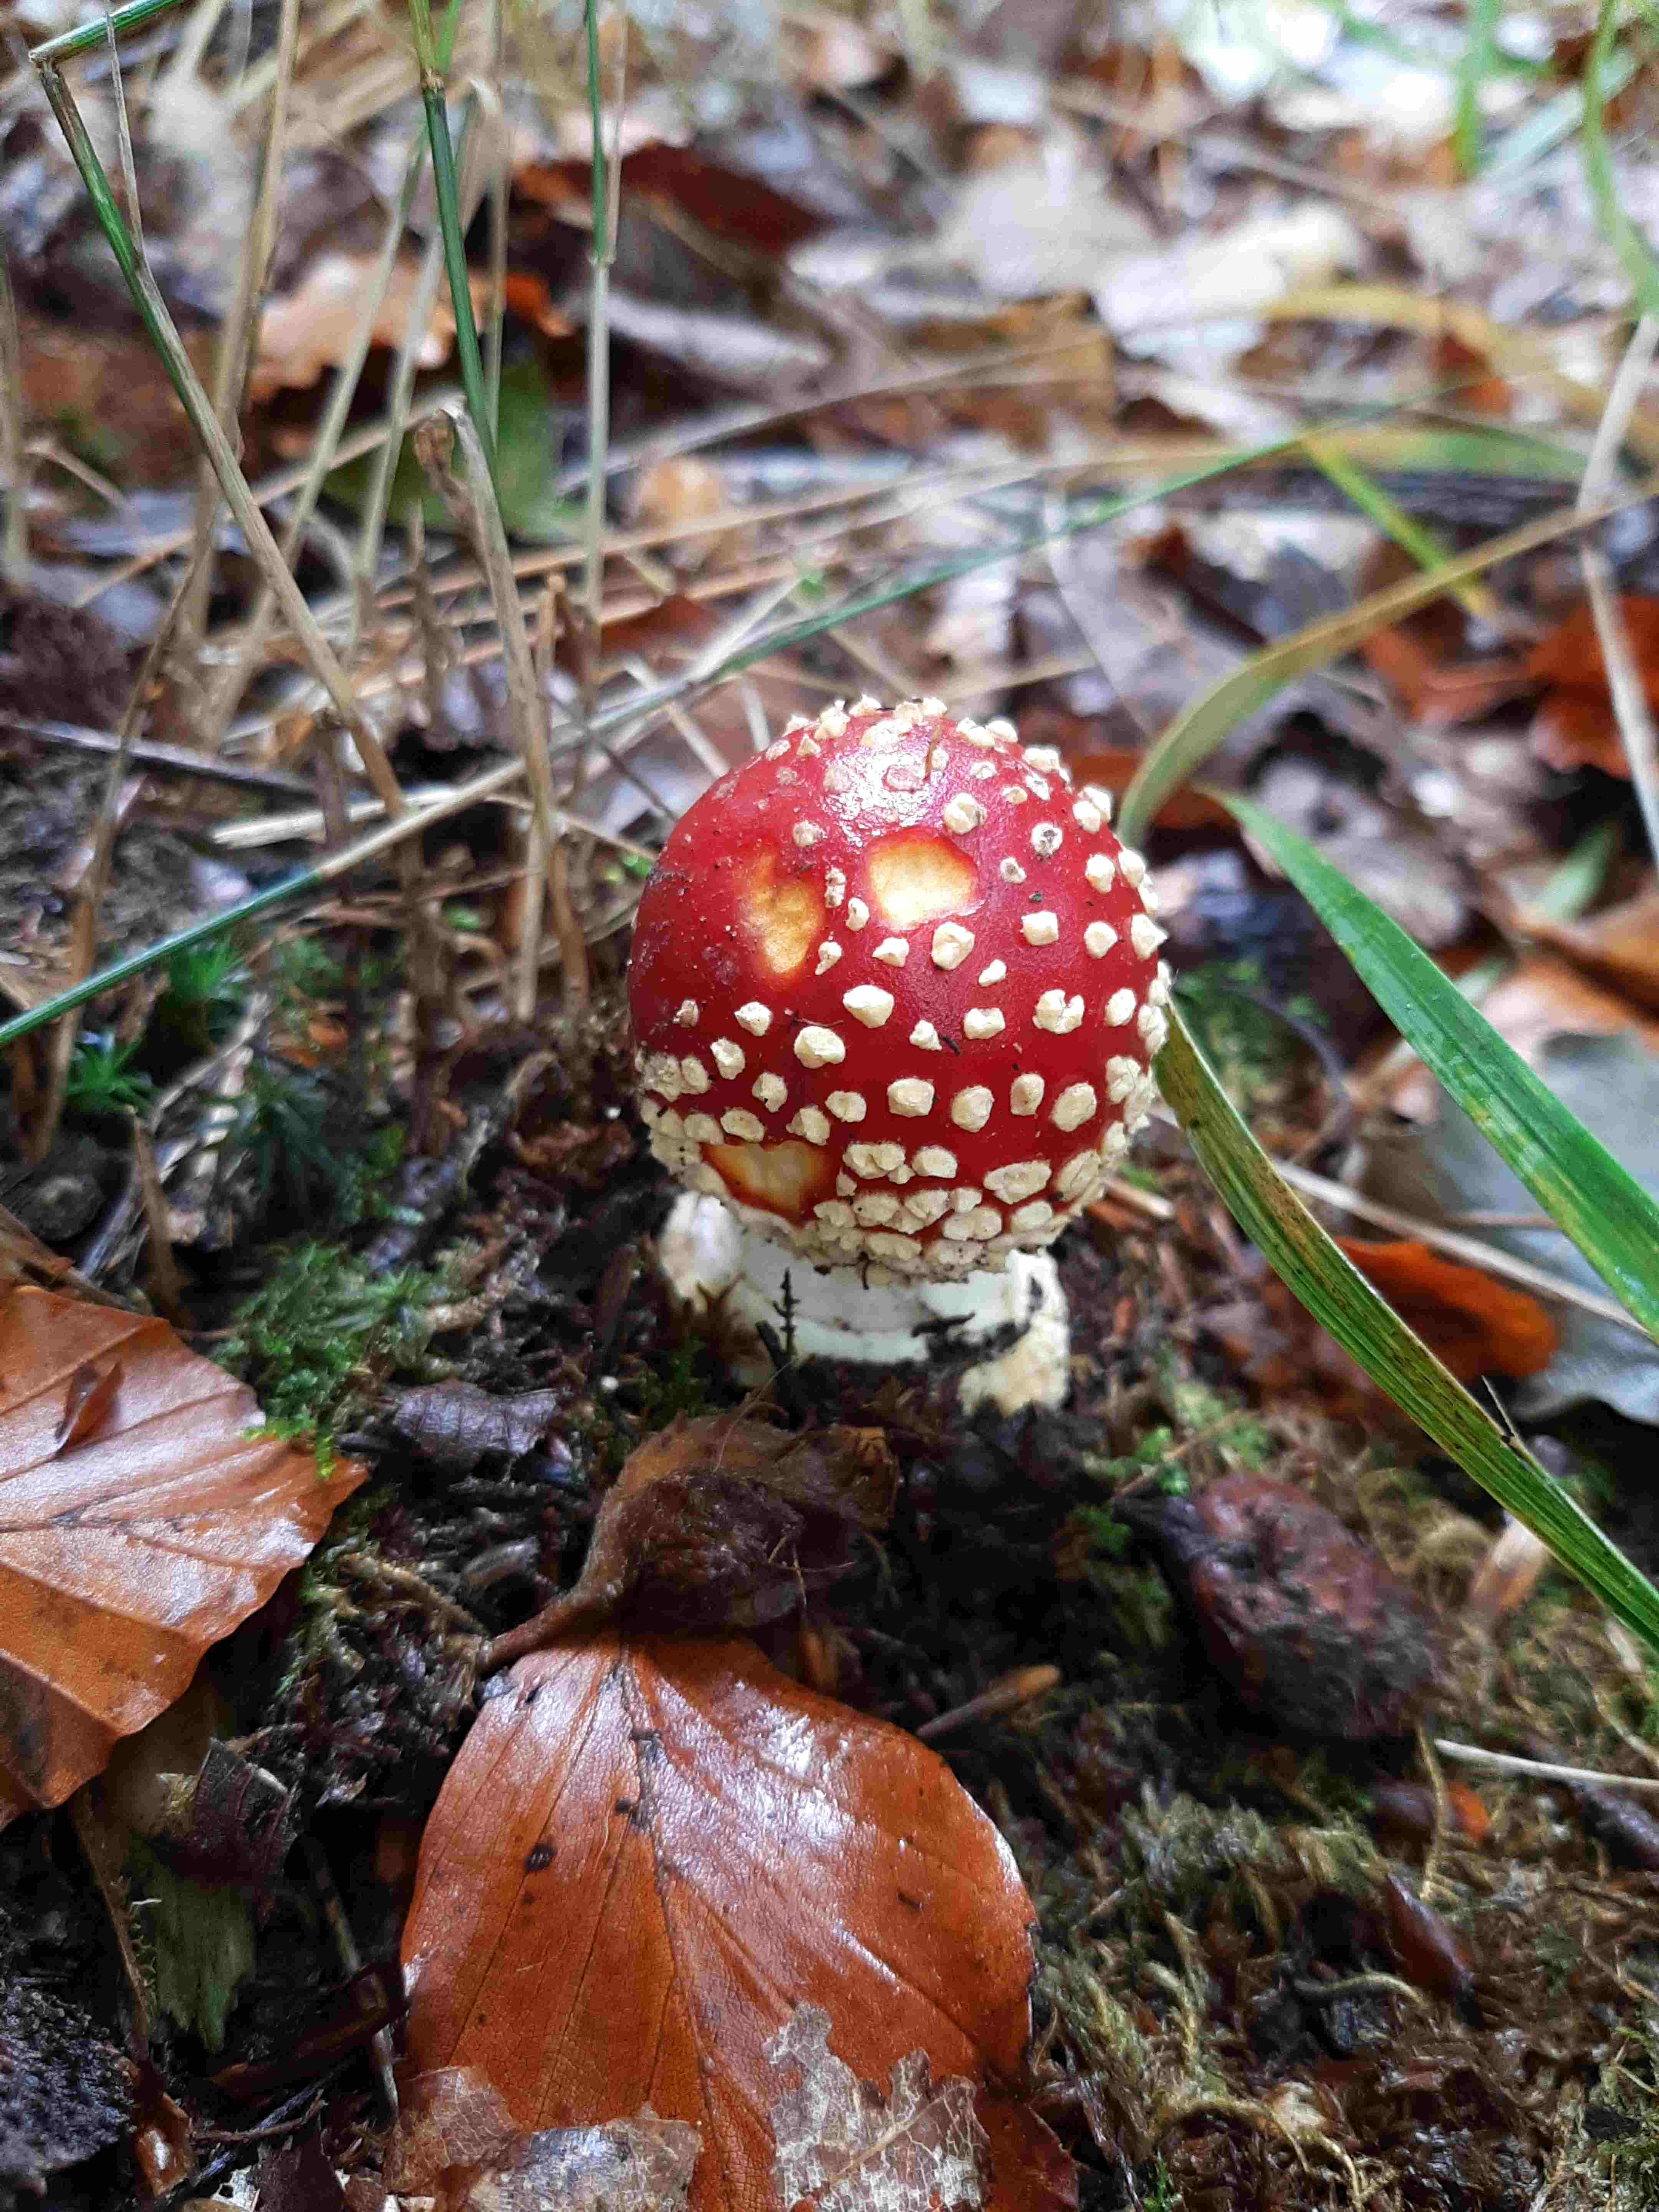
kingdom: Fungi
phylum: Basidiomycota
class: Agaricomycetes
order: Agaricales
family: Amanitaceae
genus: Amanita
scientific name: Amanita muscaria
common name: rød fluesvamp
